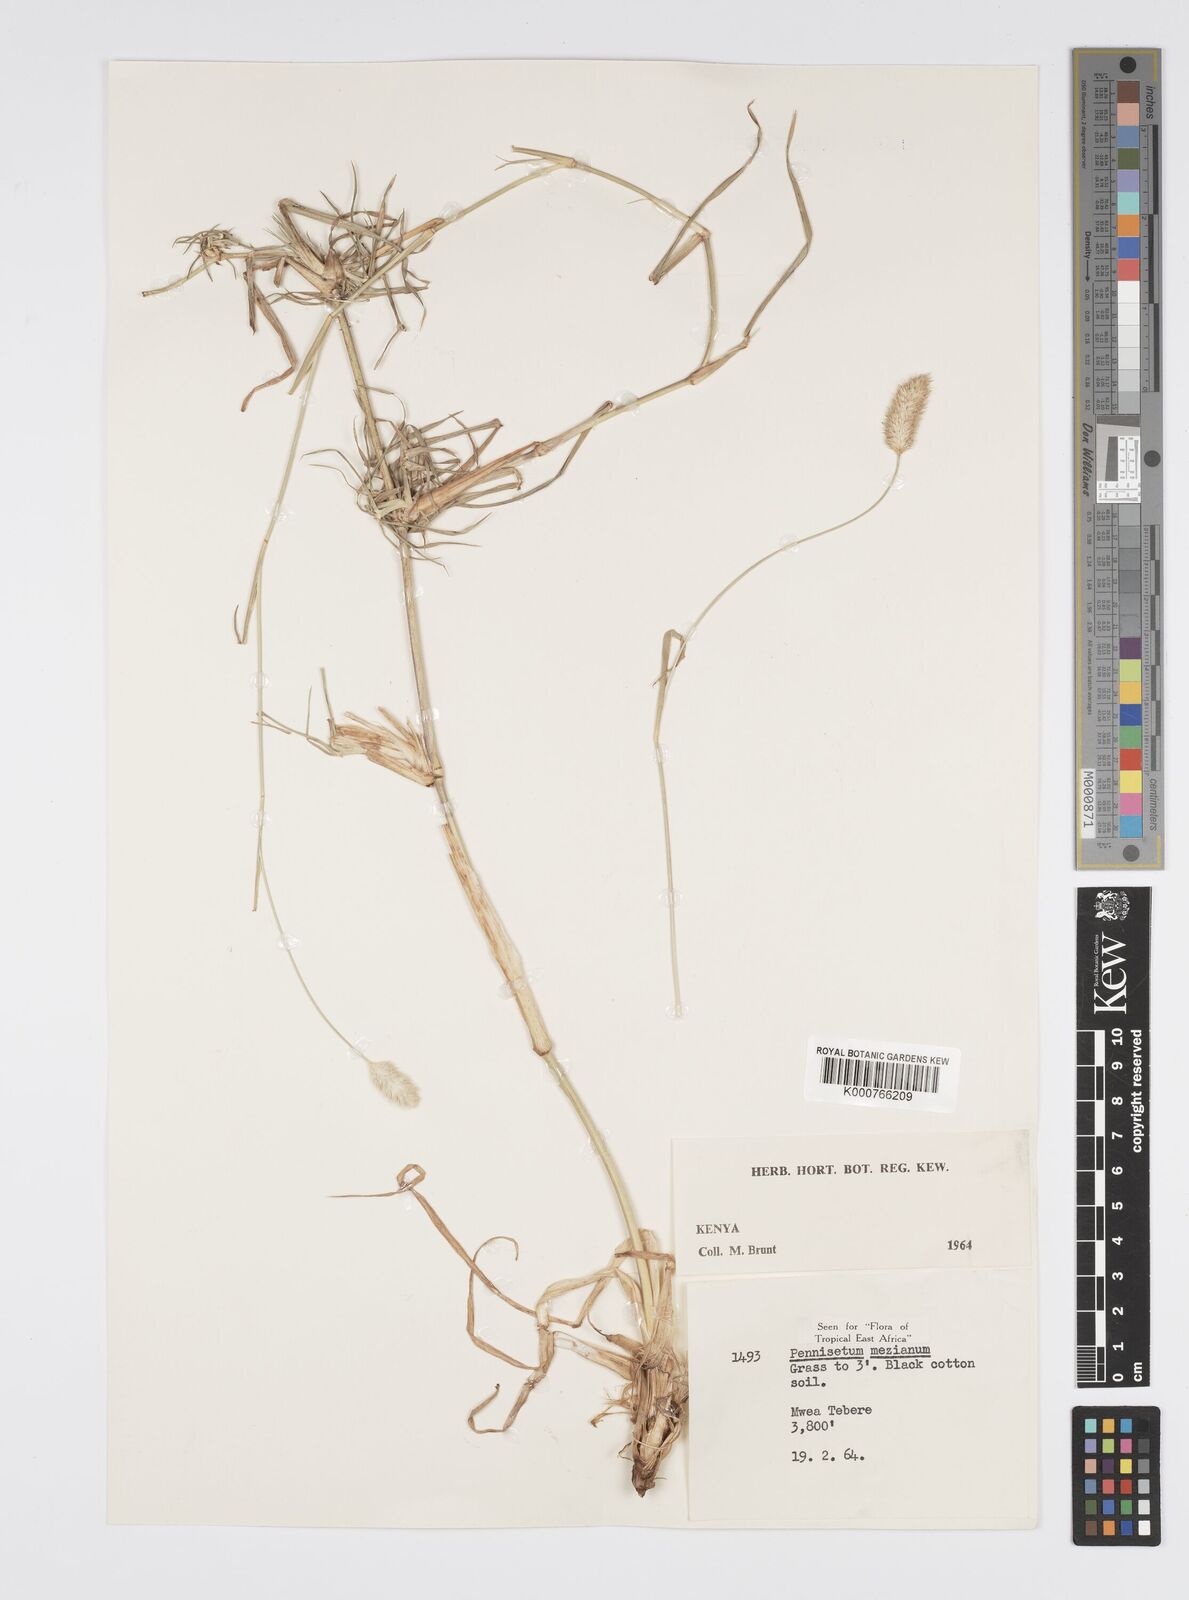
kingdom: Plantae
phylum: Tracheophyta
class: Liliopsida
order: Poales
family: Poaceae
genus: Cenchrus
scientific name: Cenchrus mezianus
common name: Bamboo grass
